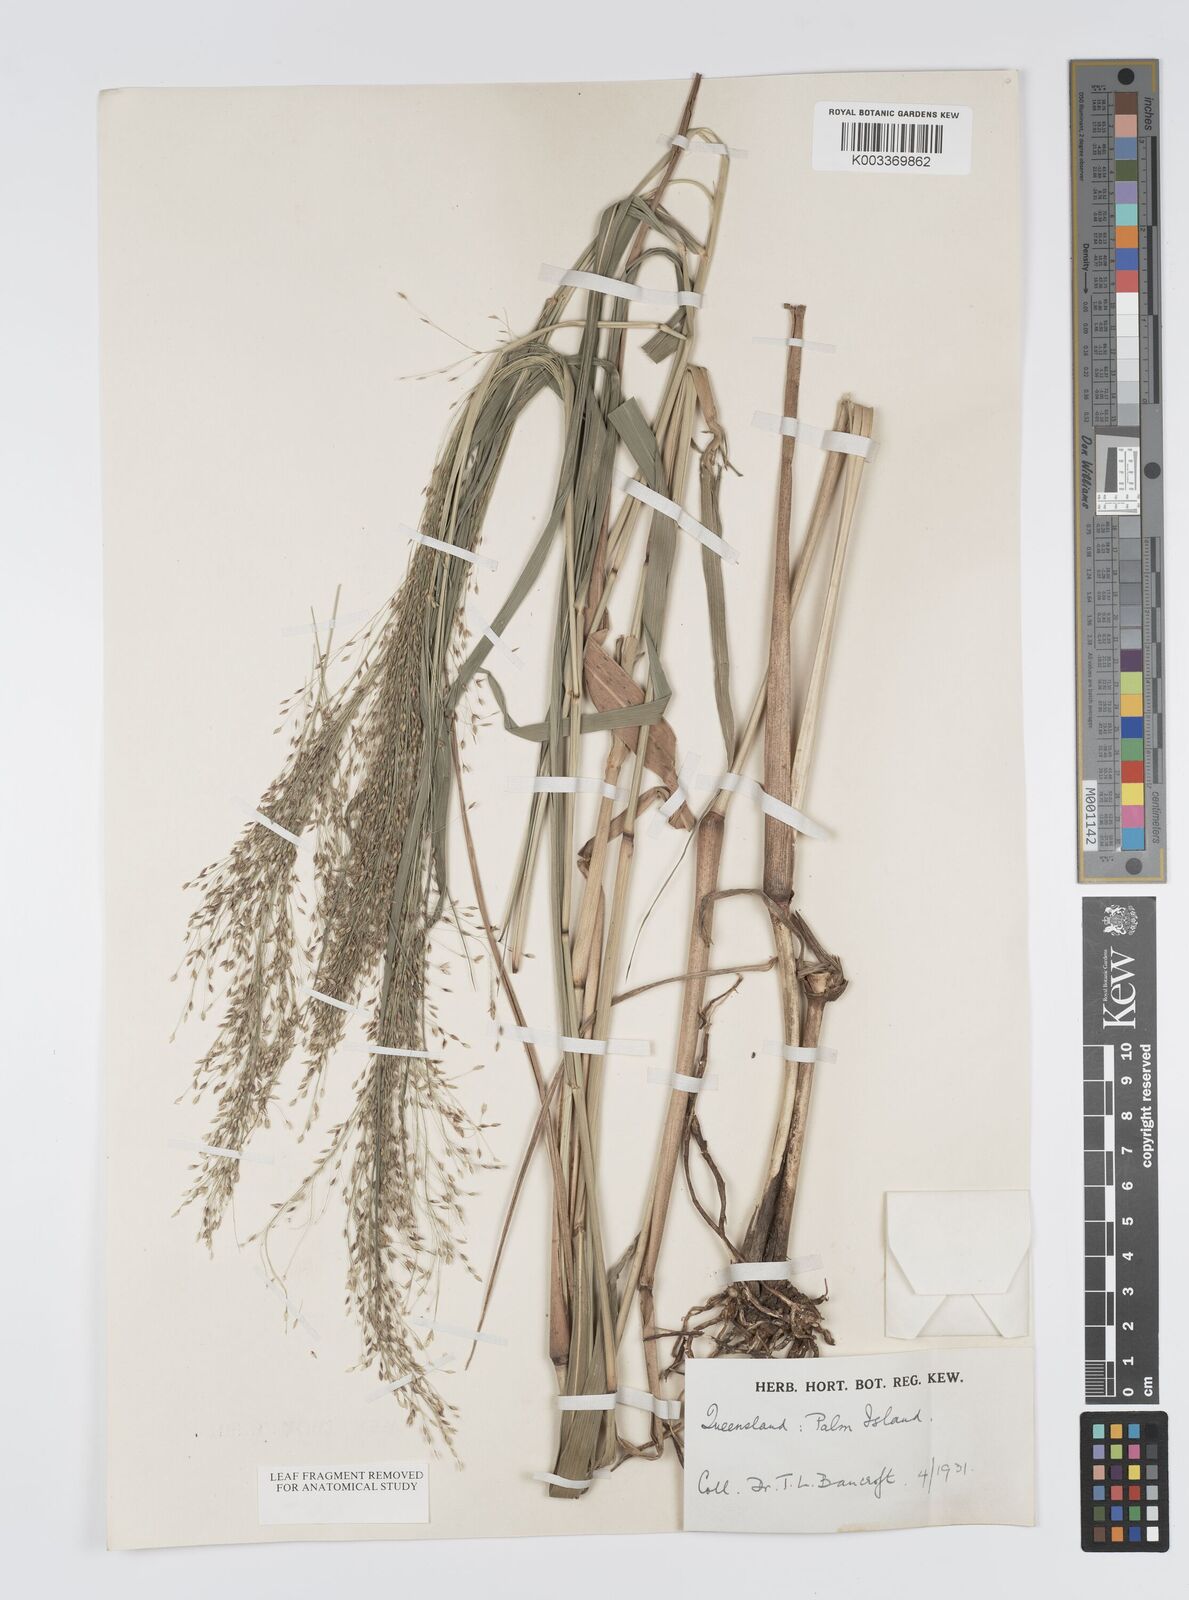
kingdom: Plantae
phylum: Tracheophyta
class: Liliopsida
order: Poales
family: Poaceae
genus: Panicum
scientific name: Panicum mitchellii
